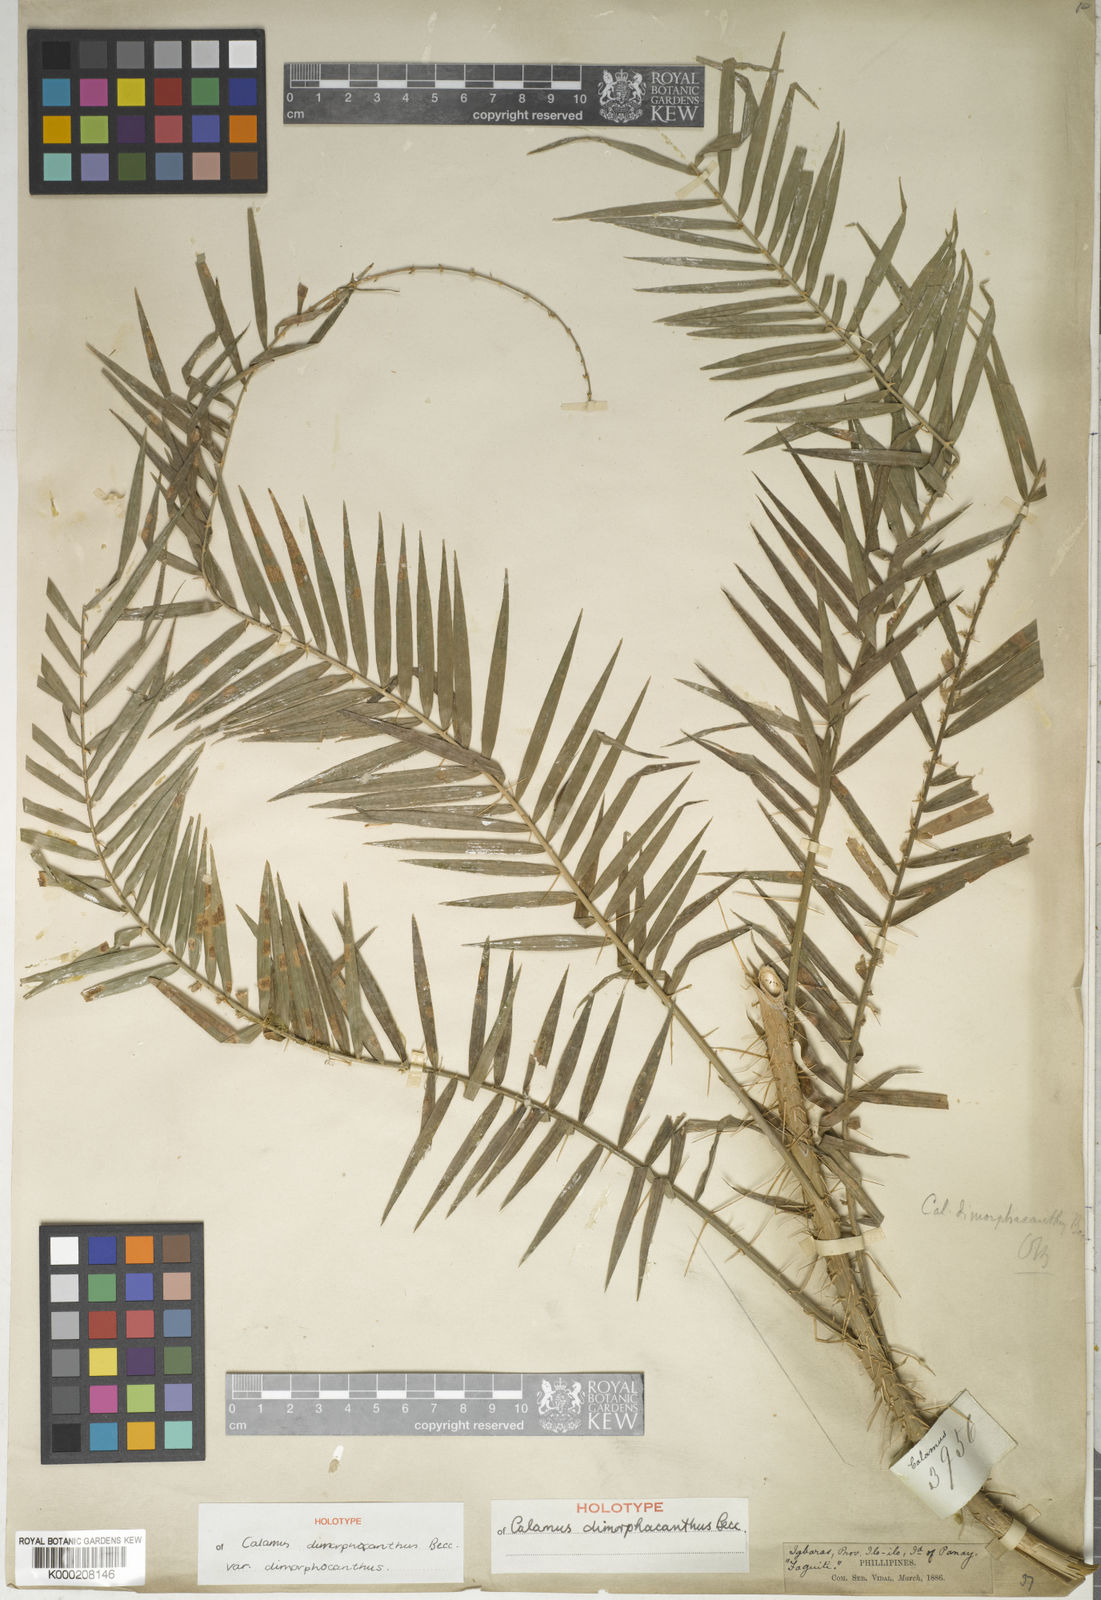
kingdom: Plantae
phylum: Tracheophyta
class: Liliopsida
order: Arecales
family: Arecaceae
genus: Calamus
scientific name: Calamus siphonospathus
